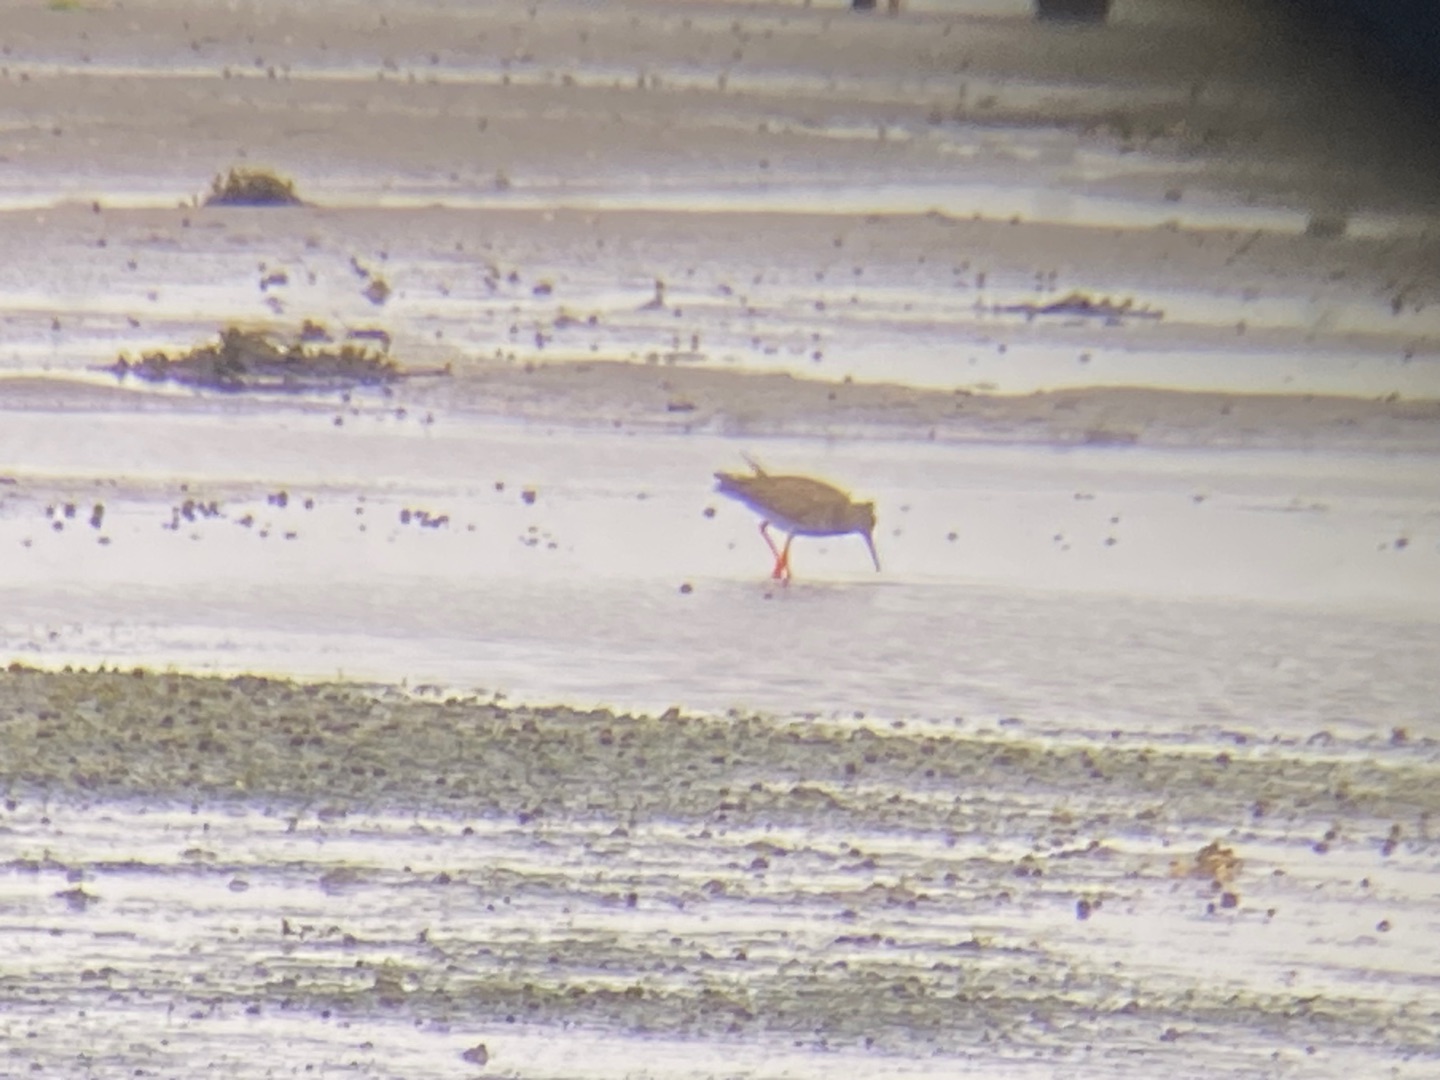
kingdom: Animalia
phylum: Chordata
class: Aves
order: Charadriiformes
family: Scolopacidae
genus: Tringa
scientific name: Tringa totanus
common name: Rødben
